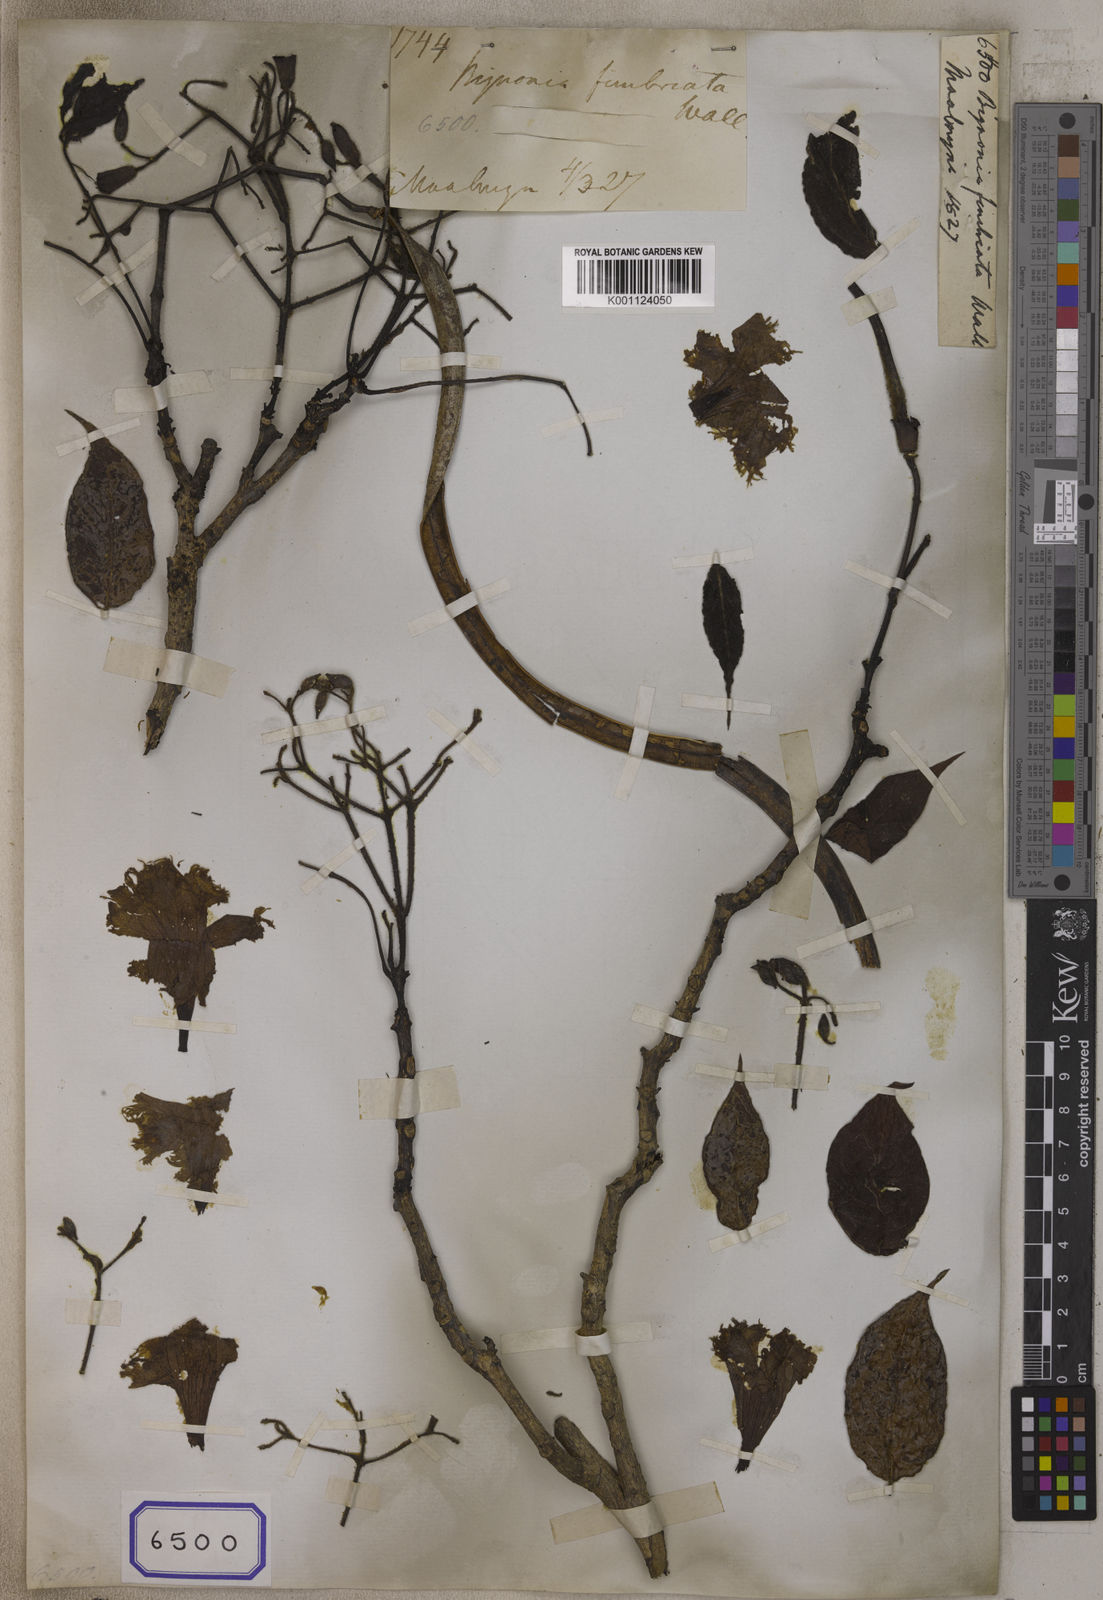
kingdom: Plantae
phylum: Tracheophyta
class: Magnoliopsida
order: Lamiales
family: Bignoniaceae
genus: Bignonia
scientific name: Bignonia
